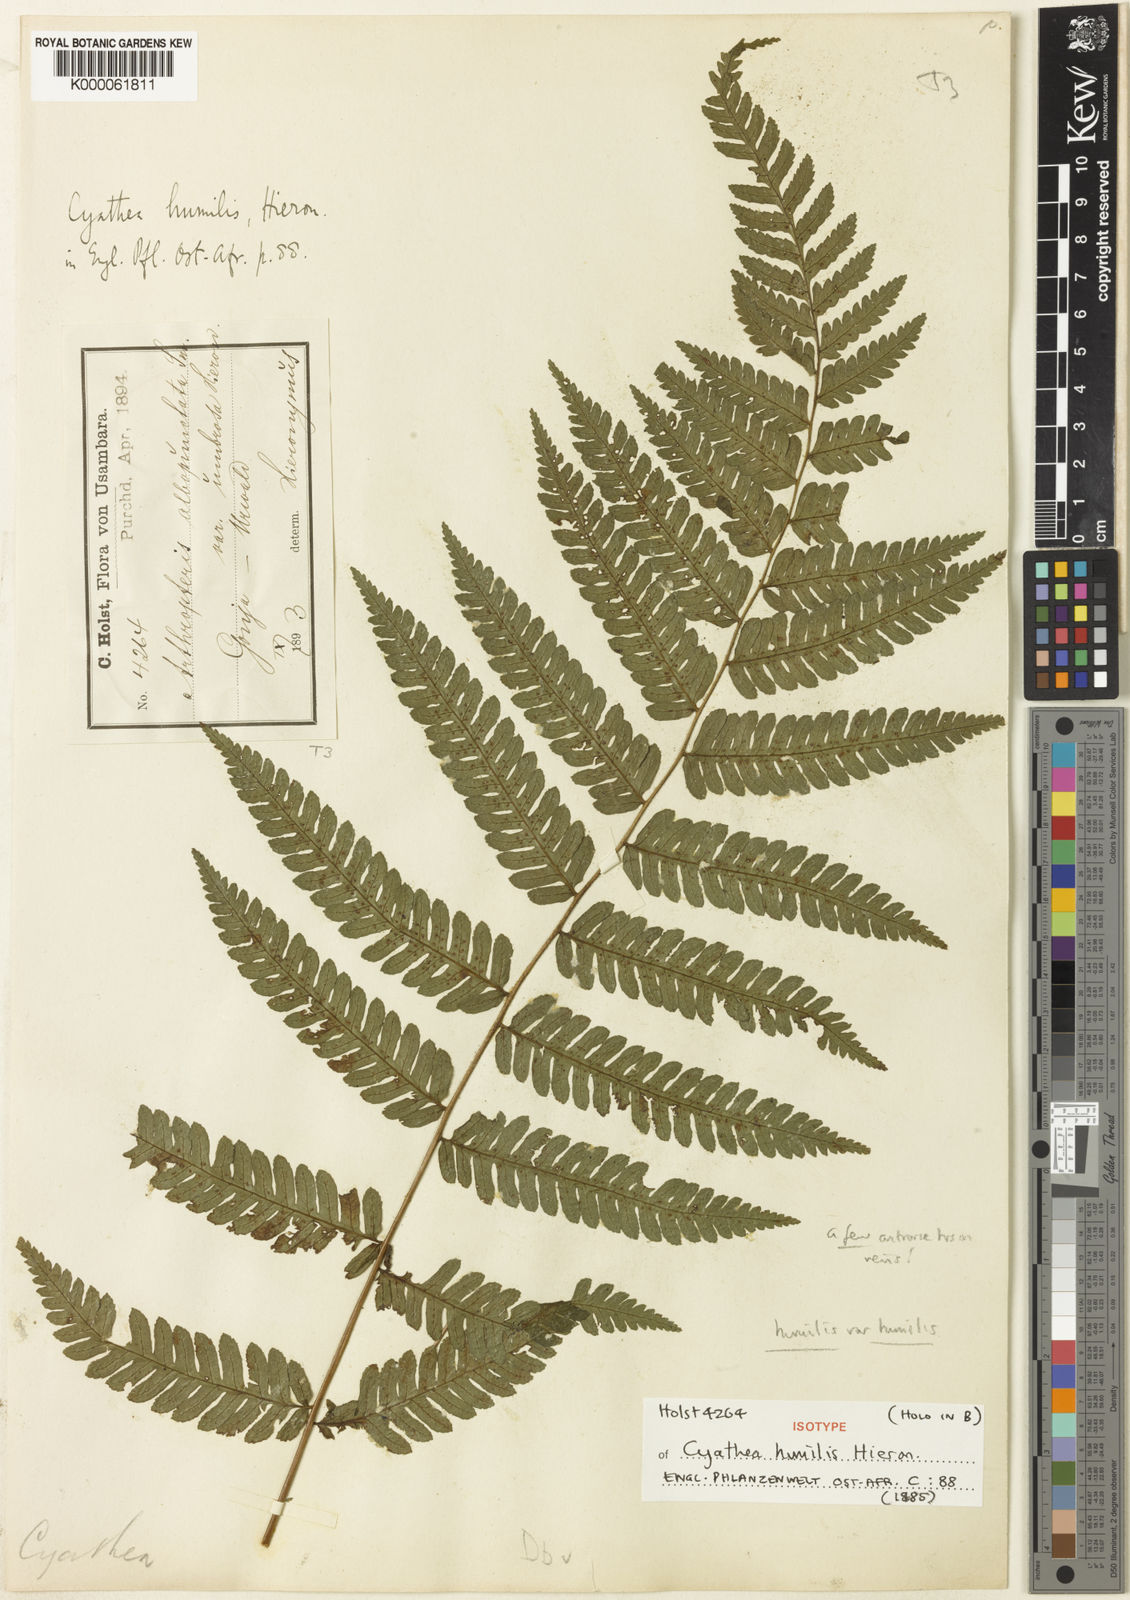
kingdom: Plantae
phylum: Tracheophyta
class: Polypodiopsida
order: Cyatheales
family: Cyatheaceae
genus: Alsophila
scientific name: Alsophila humilis
